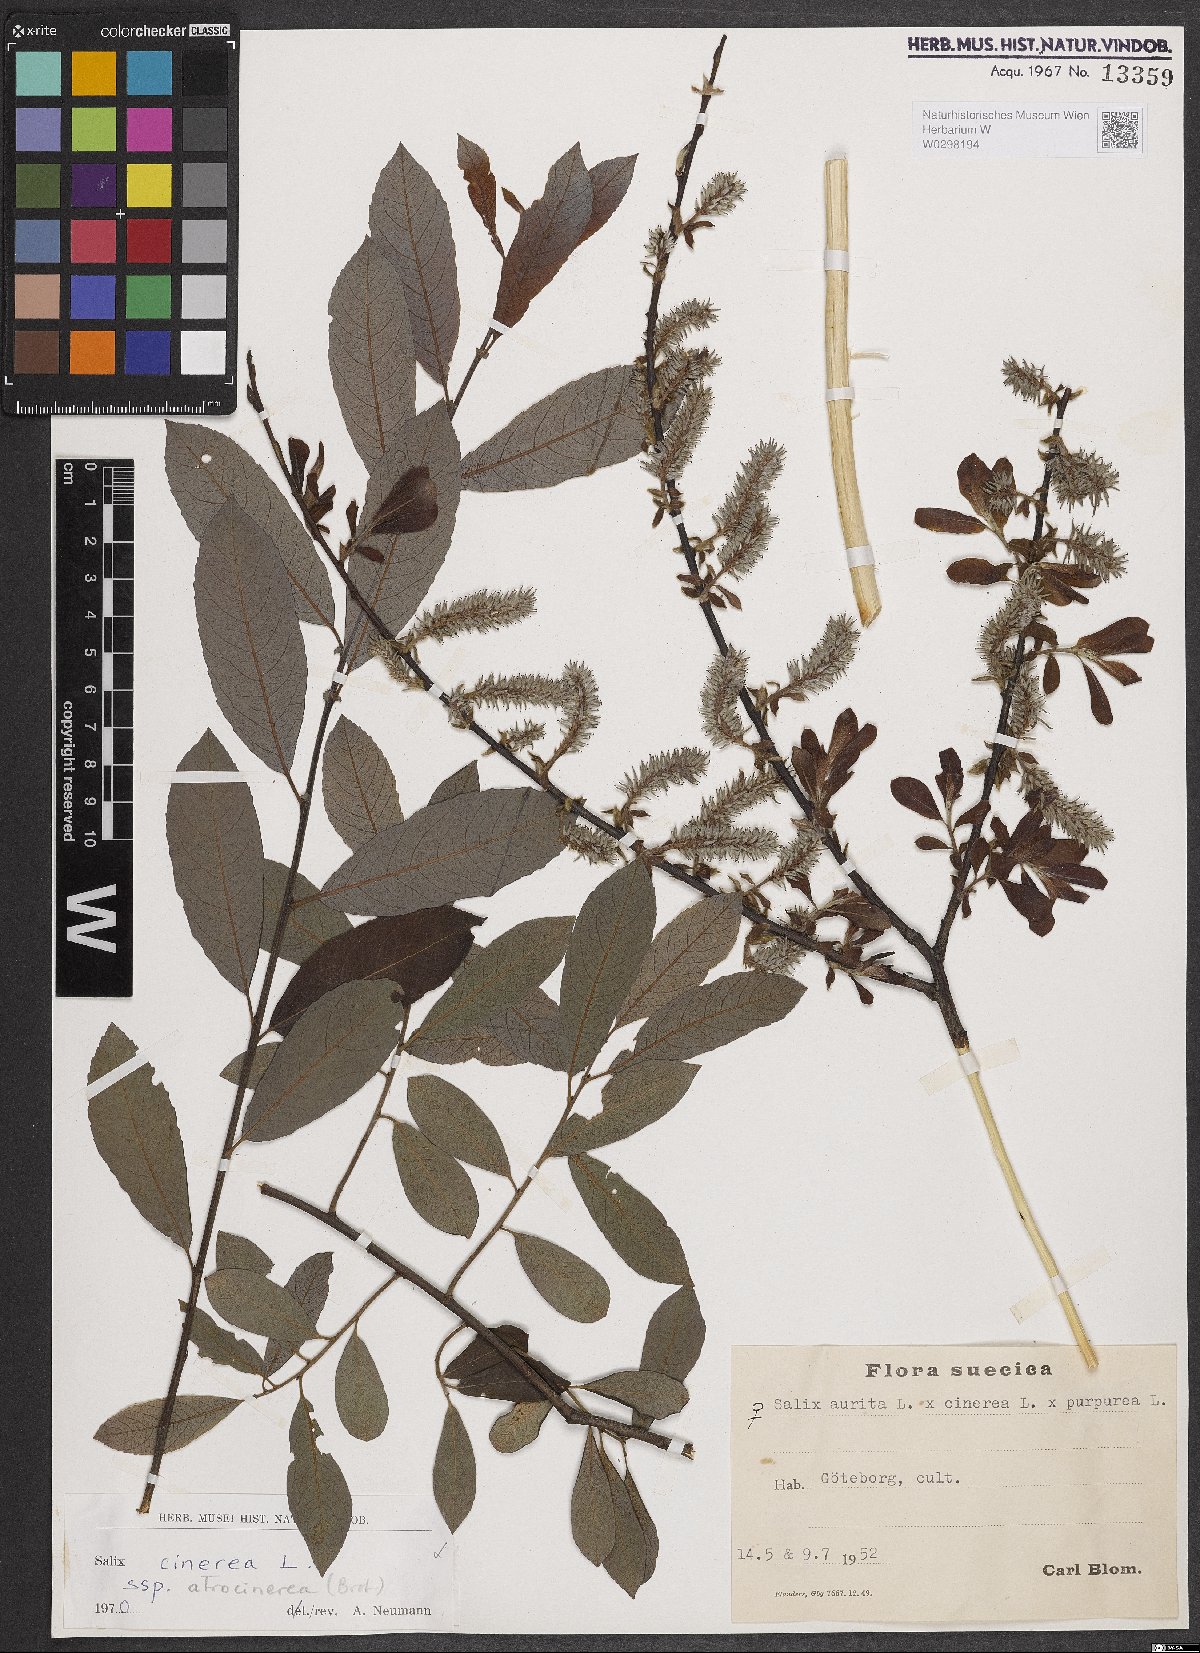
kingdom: Plantae
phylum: Tracheophyta
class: Magnoliopsida
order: Malpighiales
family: Salicaceae
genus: Salix
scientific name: Salix atrocinerea
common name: Rusty willow
